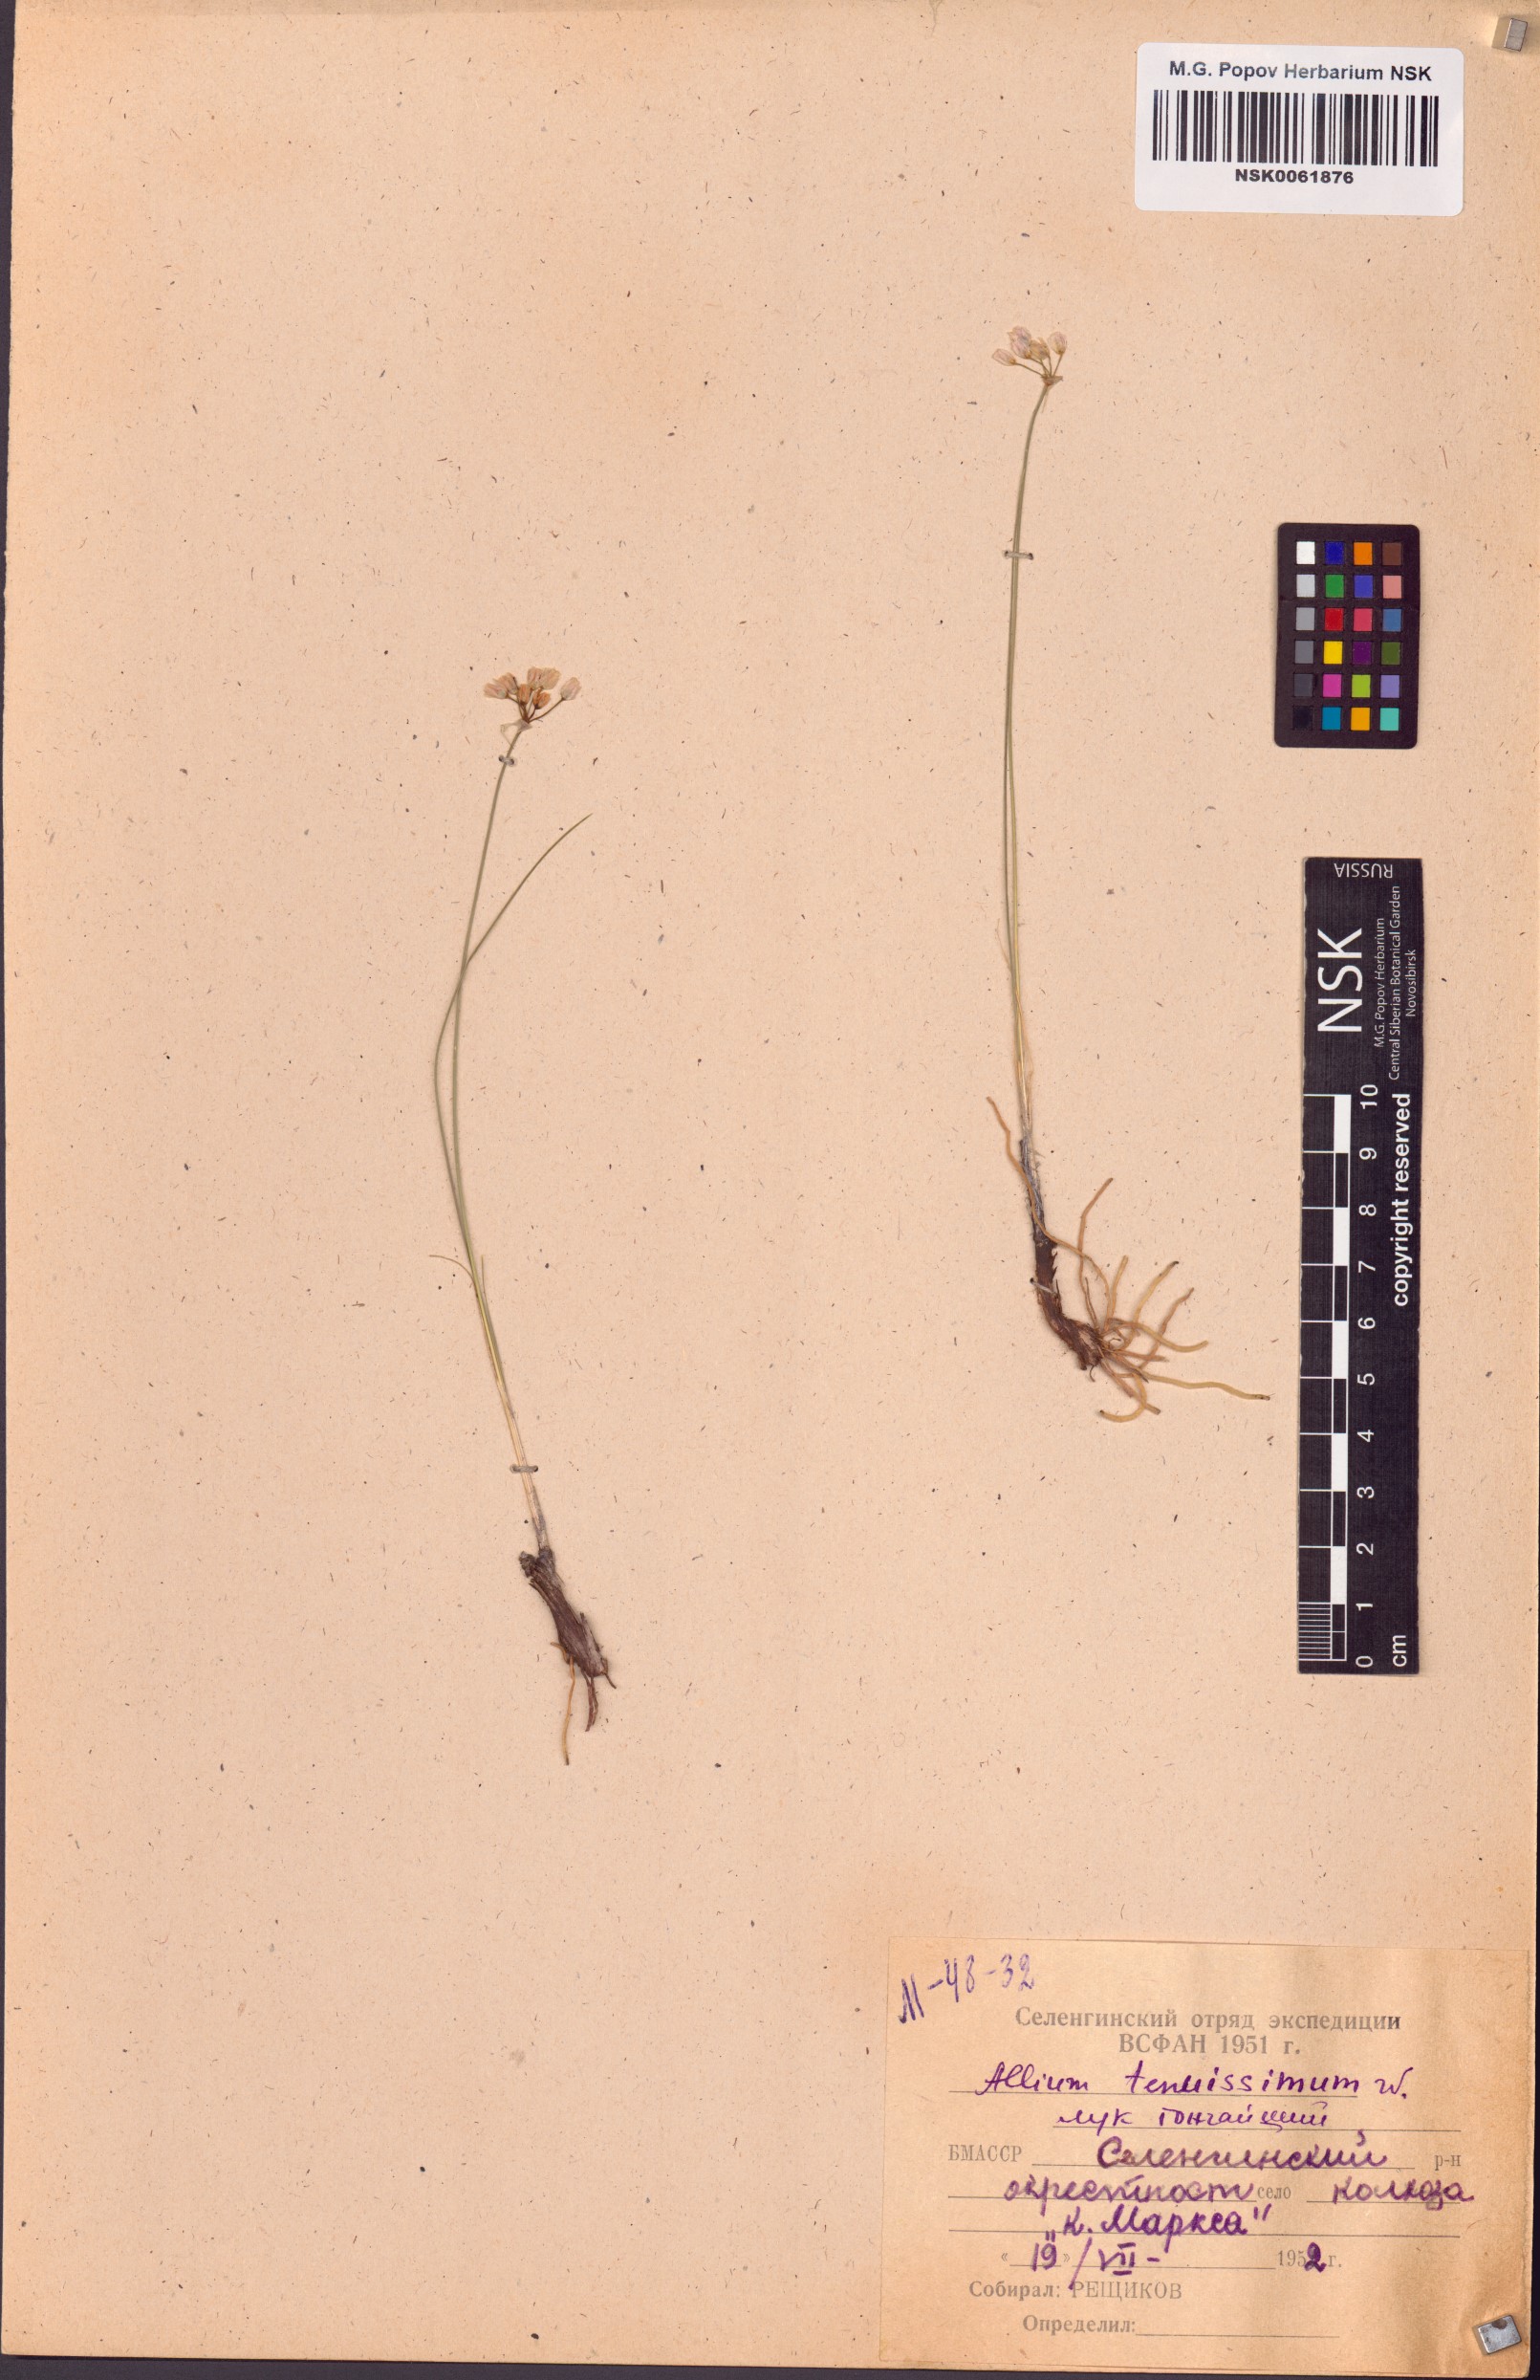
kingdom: Plantae
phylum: Tracheophyta
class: Liliopsida
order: Asparagales
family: Amaryllidaceae
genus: Allium
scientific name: Allium tenuissimum
